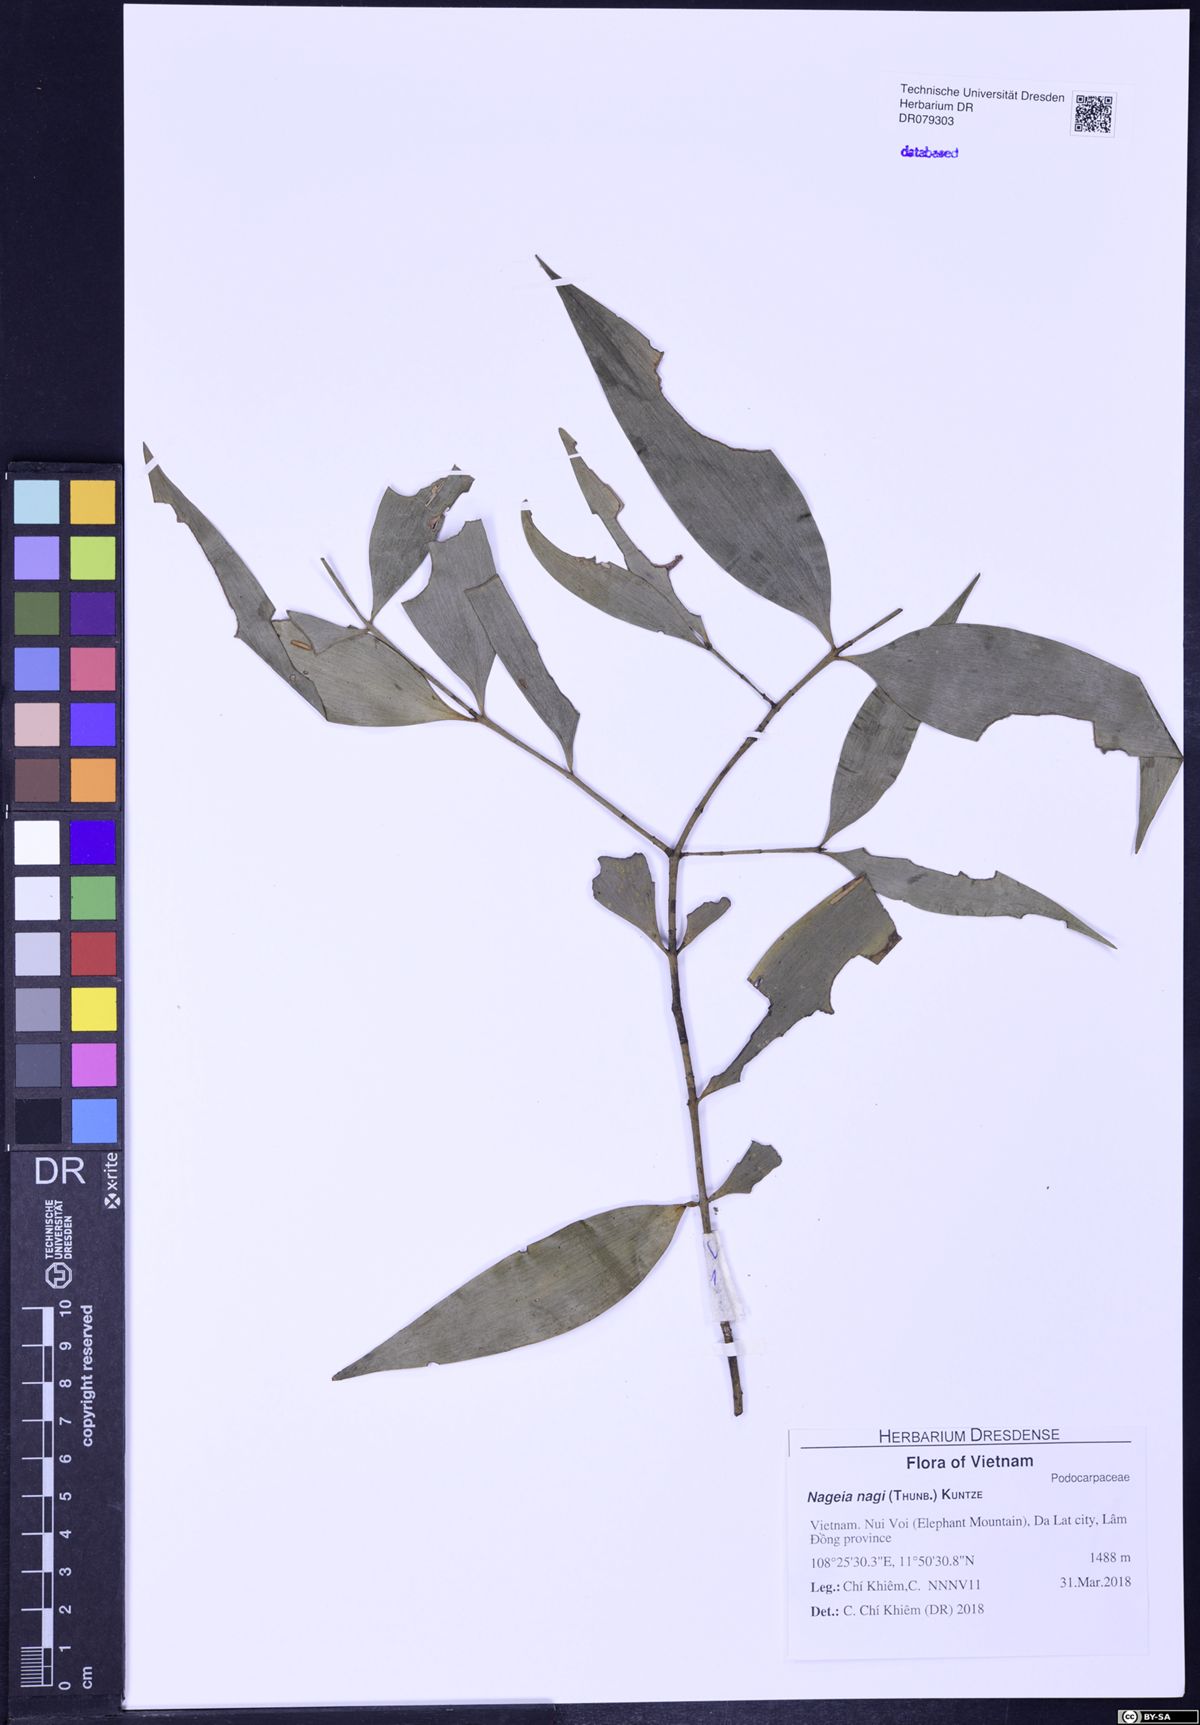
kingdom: Plantae
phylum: Tracheophyta
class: Pinopsida
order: Pinales
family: Podocarpaceae
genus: Nageia
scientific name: Nageia nagi
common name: Kaphal
